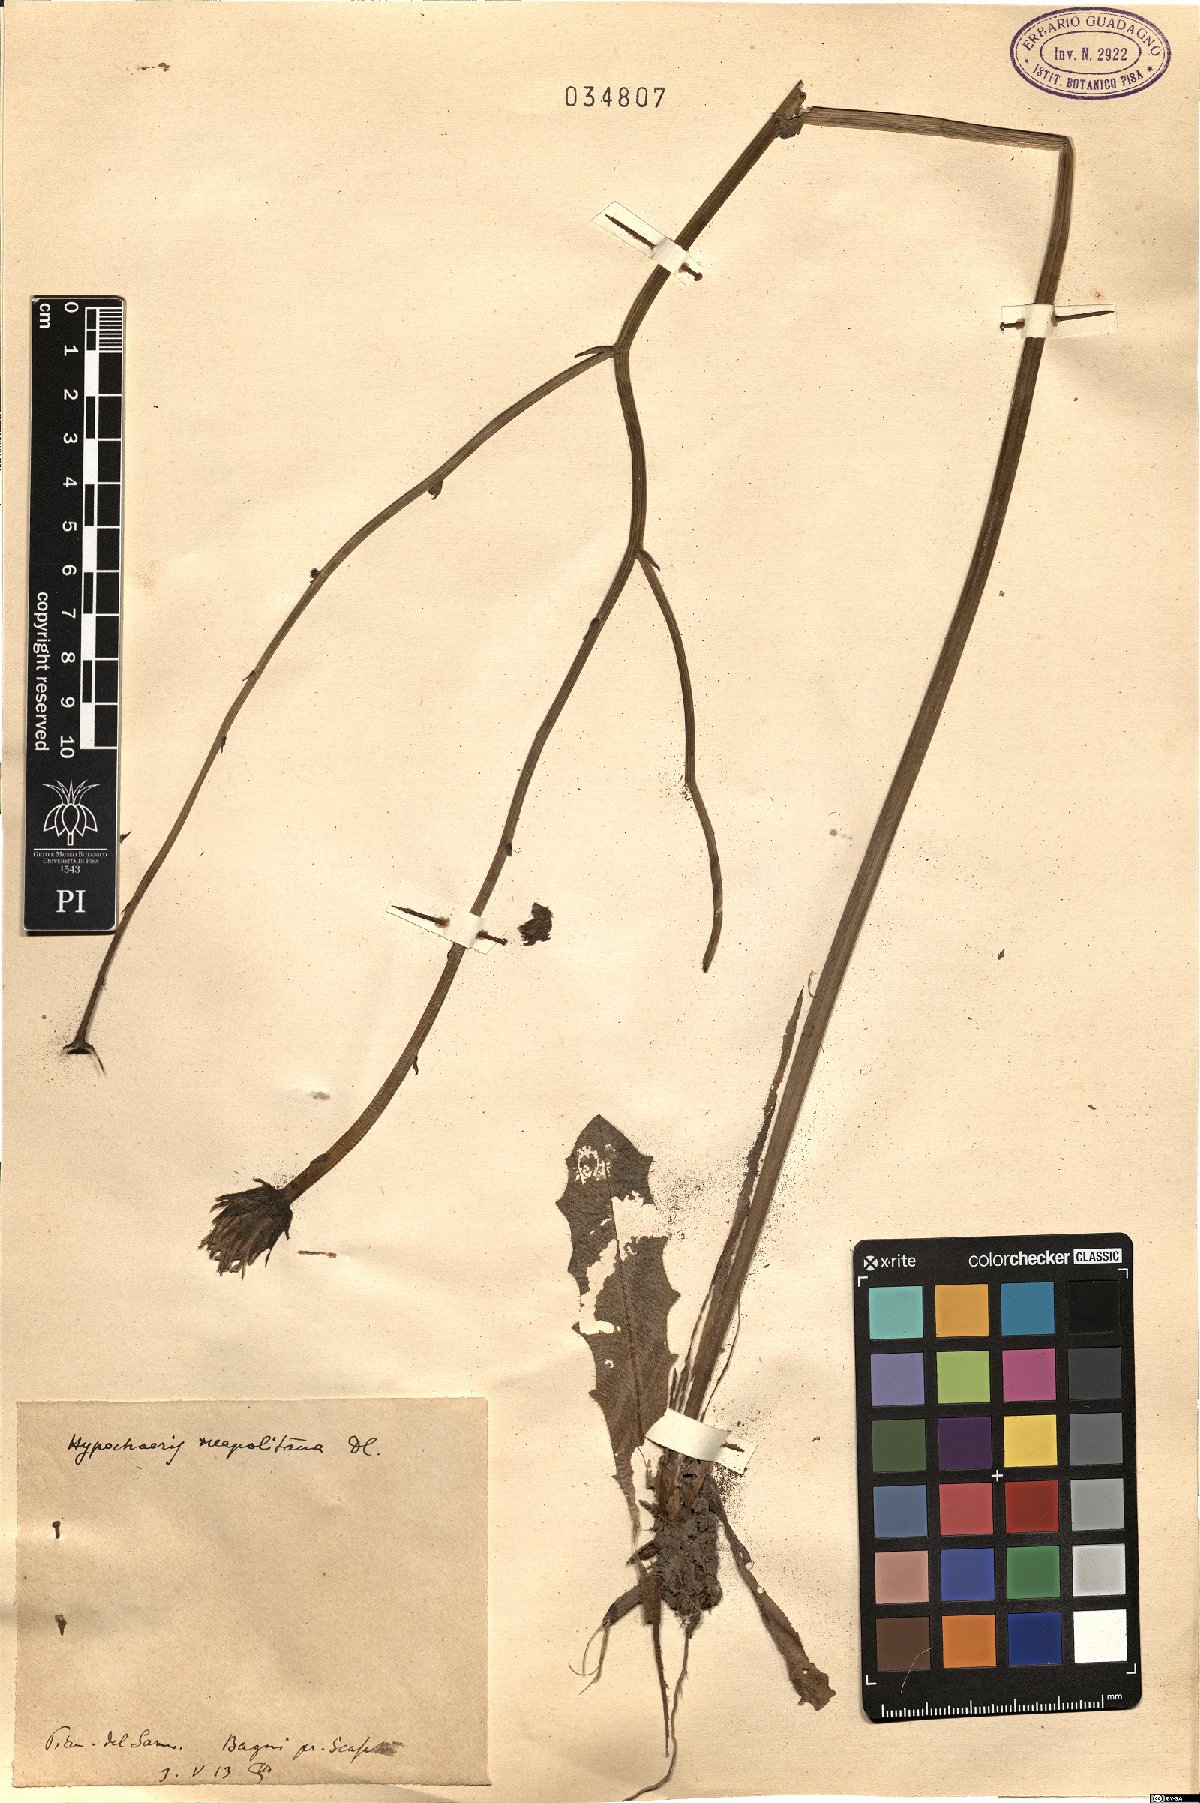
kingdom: Plantae
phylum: Tracheophyta
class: Magnoliopsida
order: Asterales
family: Asteraceae
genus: Hypochaeris
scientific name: Hypochaeris radicata
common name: Flatweed
